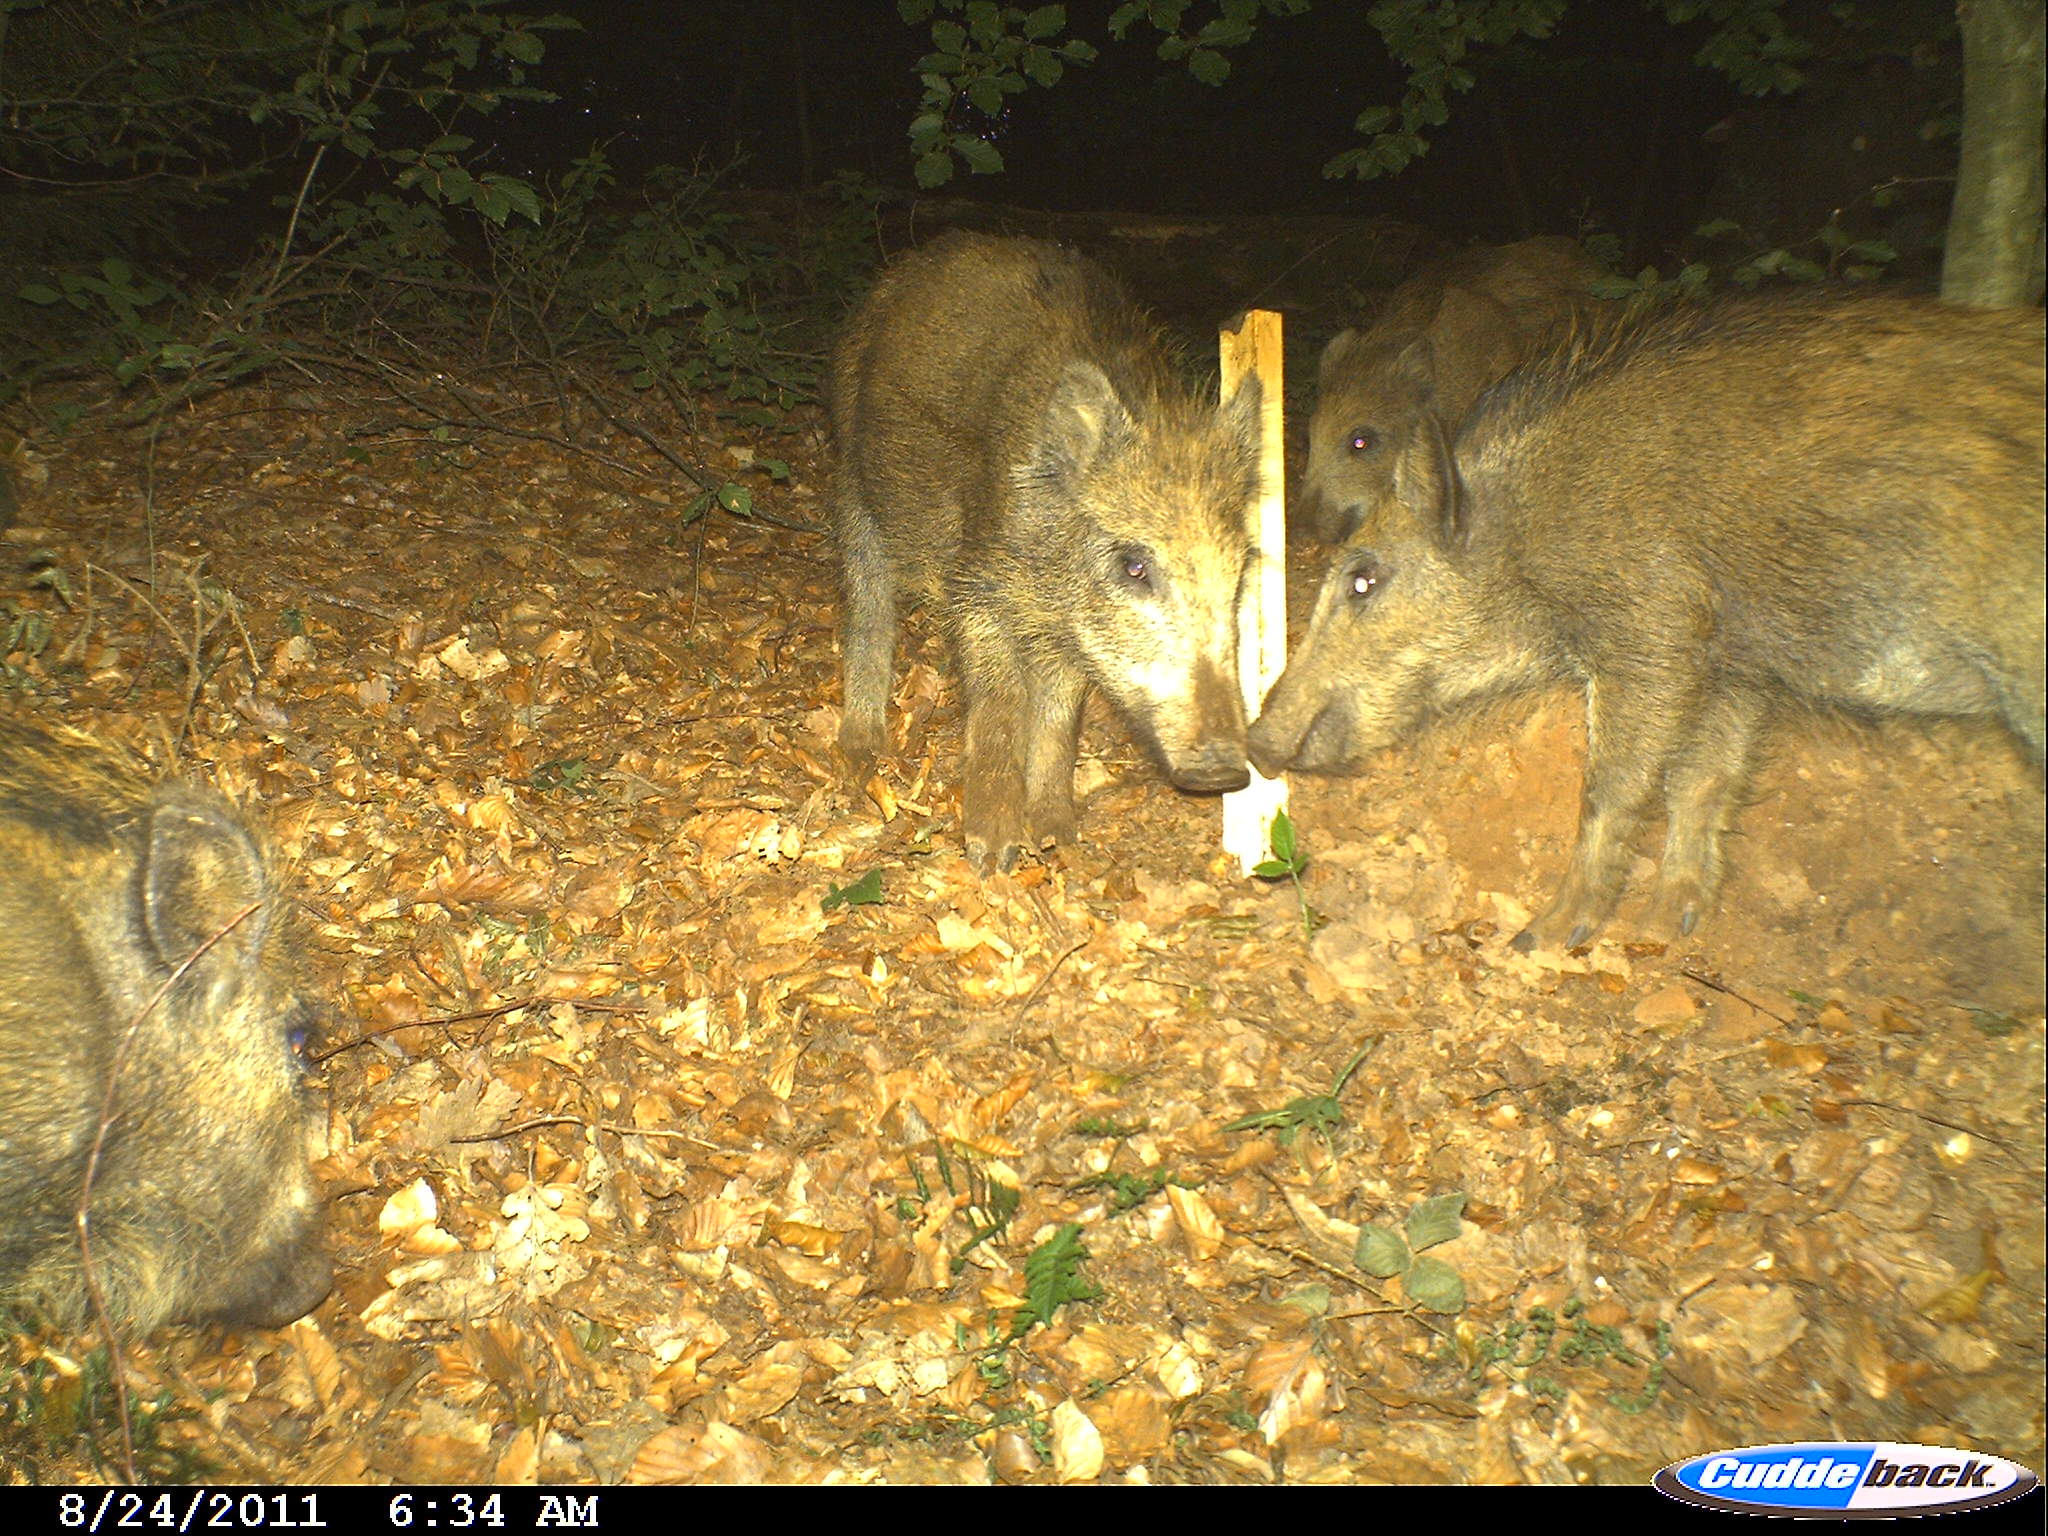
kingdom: Animalia
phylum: Chordata
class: Mammalia
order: Artiodactyla
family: Suidae
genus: Sus
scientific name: Sus scrofa
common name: Wild boar
